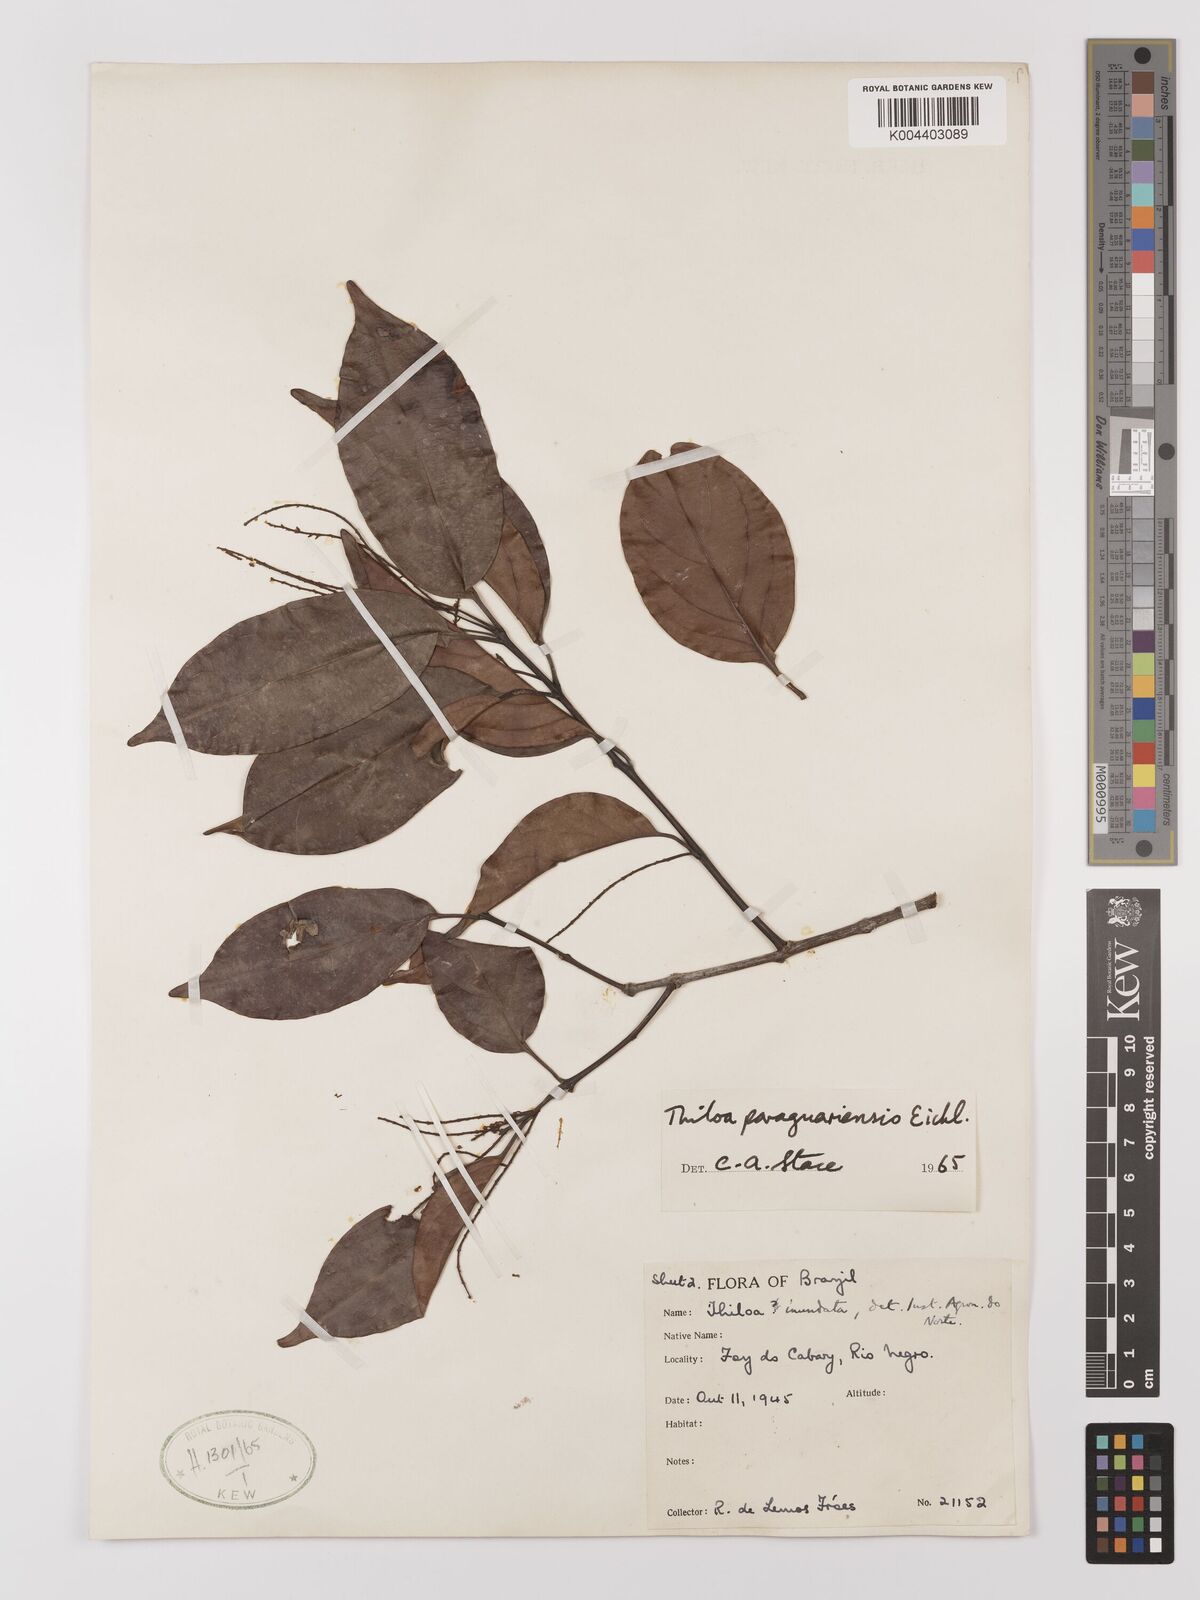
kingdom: Plantae
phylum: Tracheophyta
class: Magnoliopsida
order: Myrtales
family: Combretaceae
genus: Combretum
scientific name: Combretum paraguariense
